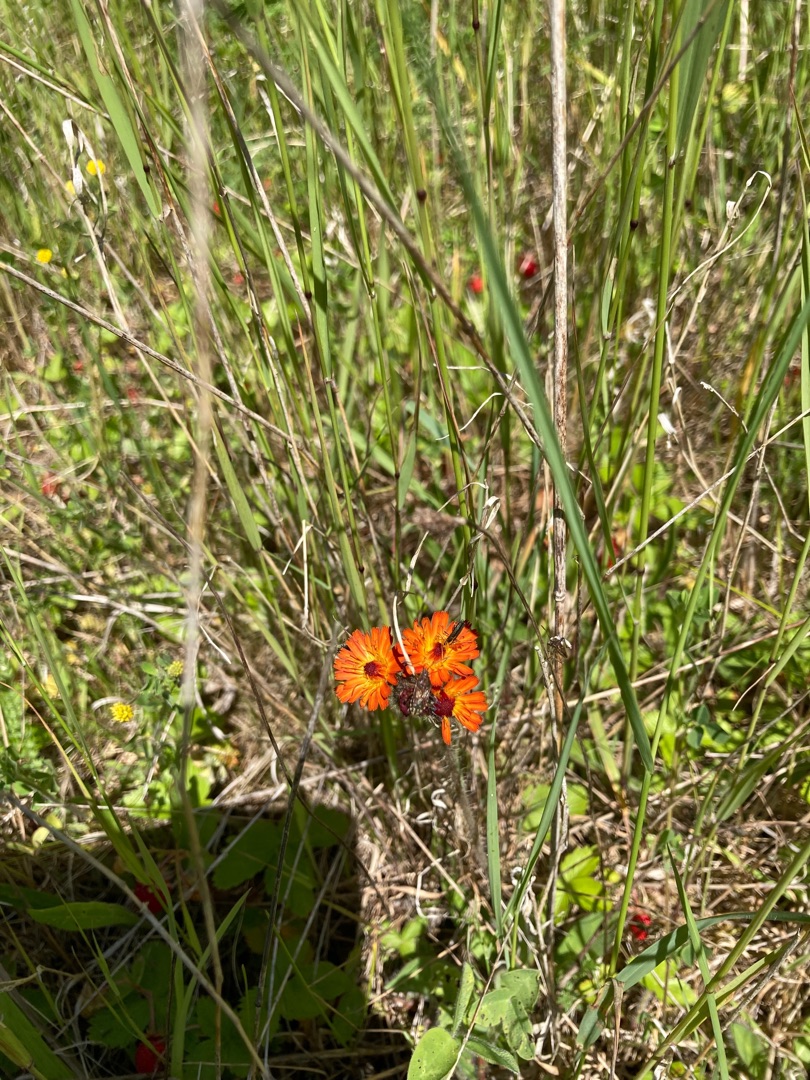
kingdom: Plantae
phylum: Tracheophyta
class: Magnoliopsida
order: Asterales
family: Asteraceae
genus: Pilosella
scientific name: Pilosella aurantiaca
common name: Pomerans-høgeurt
